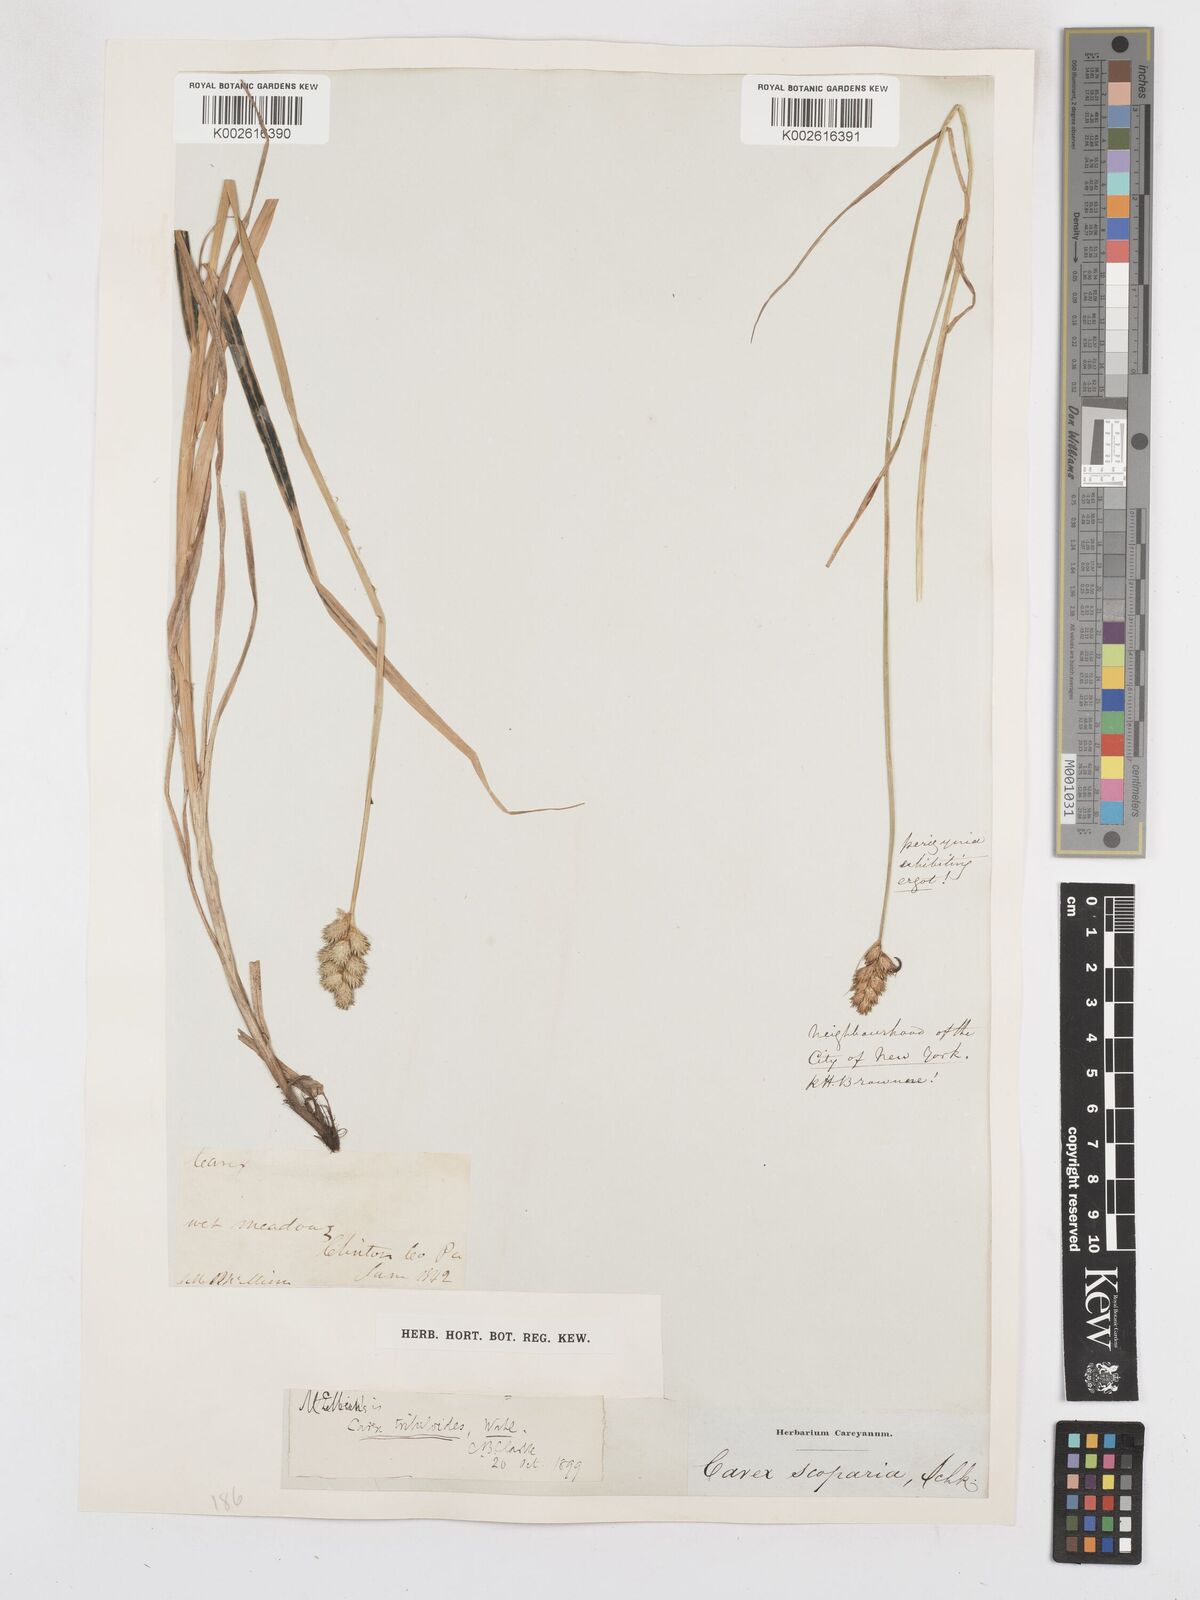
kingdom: Plantae
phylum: Tracheophyta
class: Liliopsida
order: Poales
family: Cyperaceae
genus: Carex
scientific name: Carex tribuloides
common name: Blunt broom sedge
